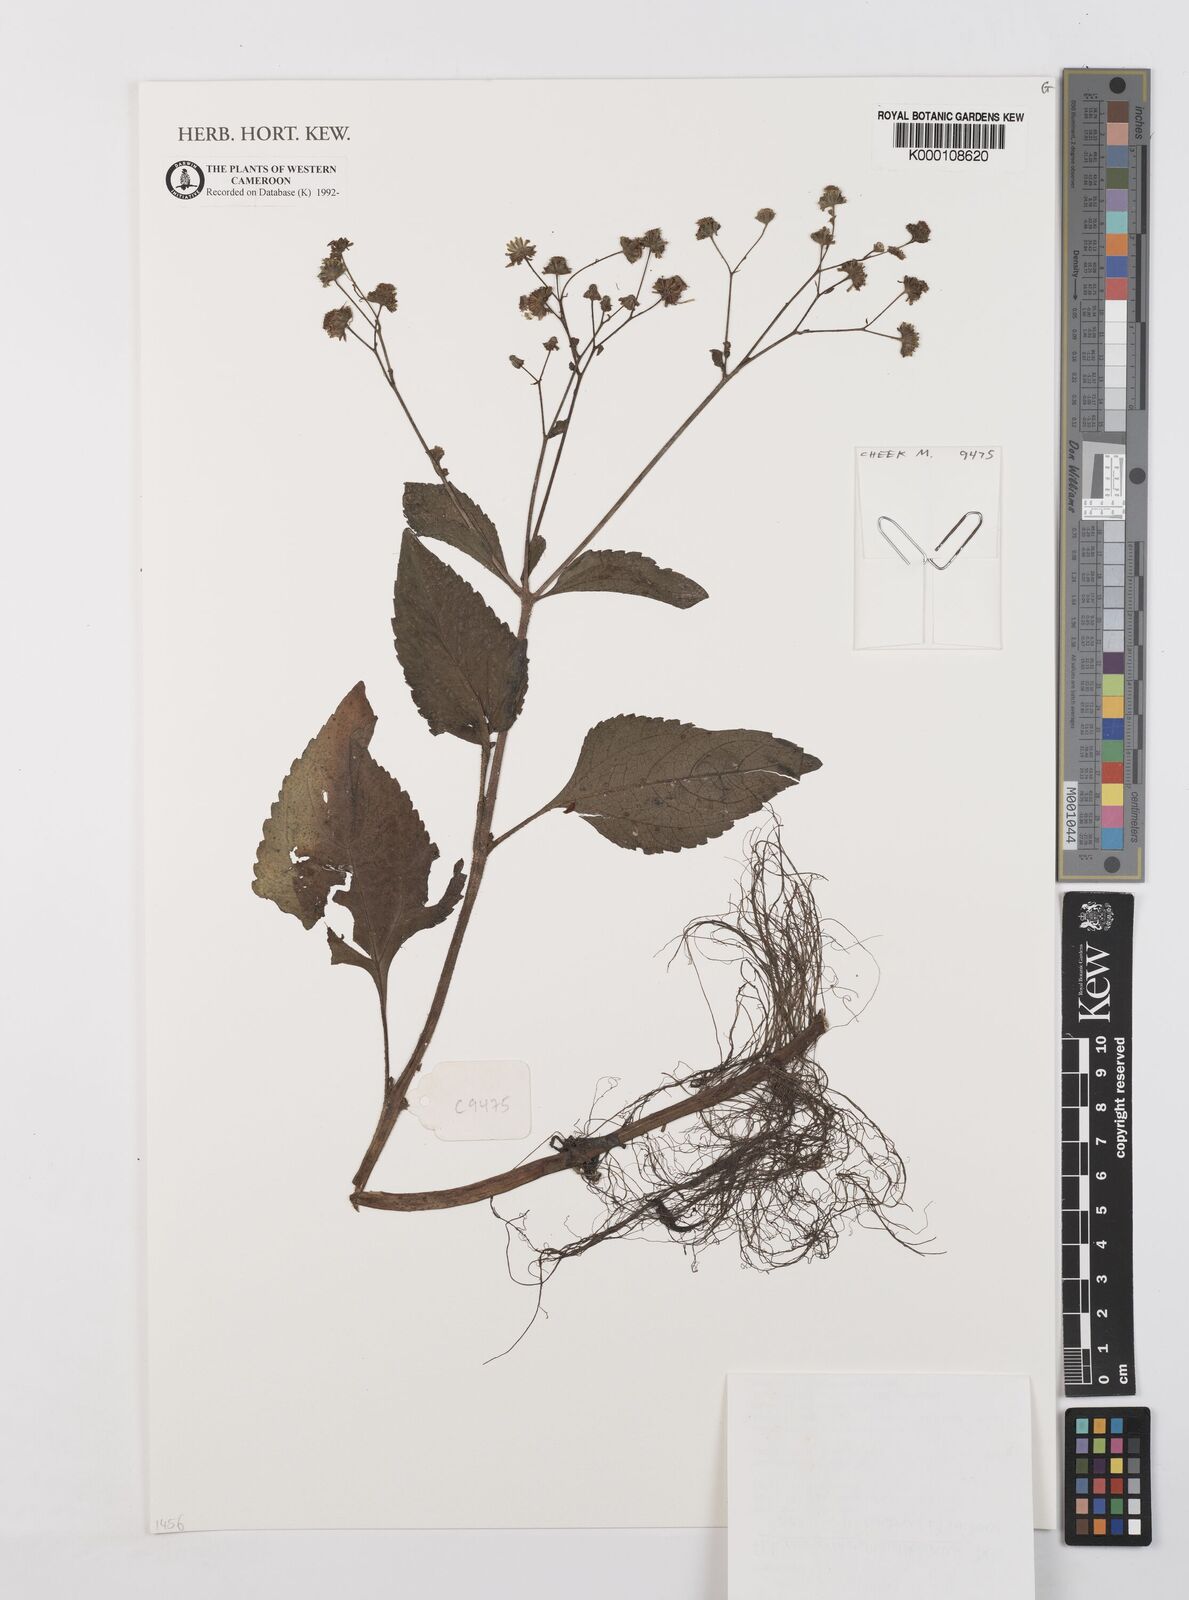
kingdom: Plantae
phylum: Tracheophyta
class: Magnoliopsida
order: Asterales
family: Asteraceae
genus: Adenostemma
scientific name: Adenostemma mauritianum
